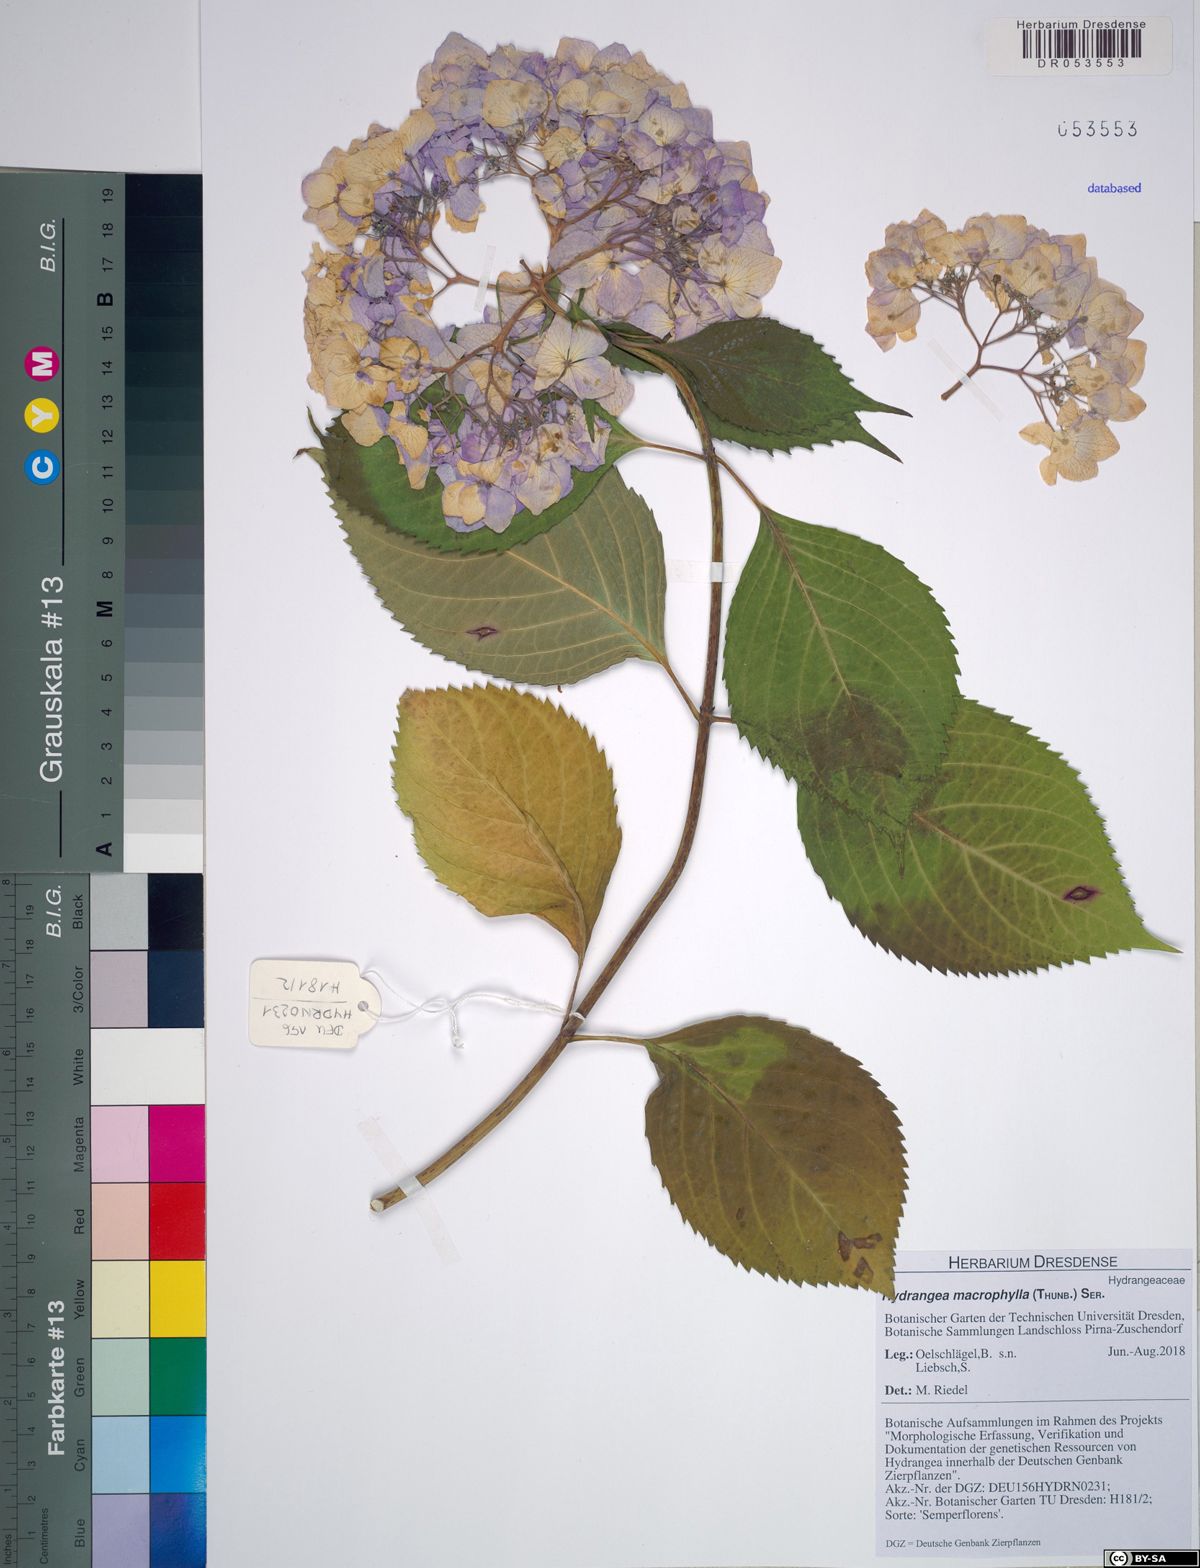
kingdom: Plantae
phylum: Tracheophyta
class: Magnoliopsida
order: Cornales
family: Hydrangeaceae
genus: Hydrangea
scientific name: Hydrangea macrophylla
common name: Hydrangea
